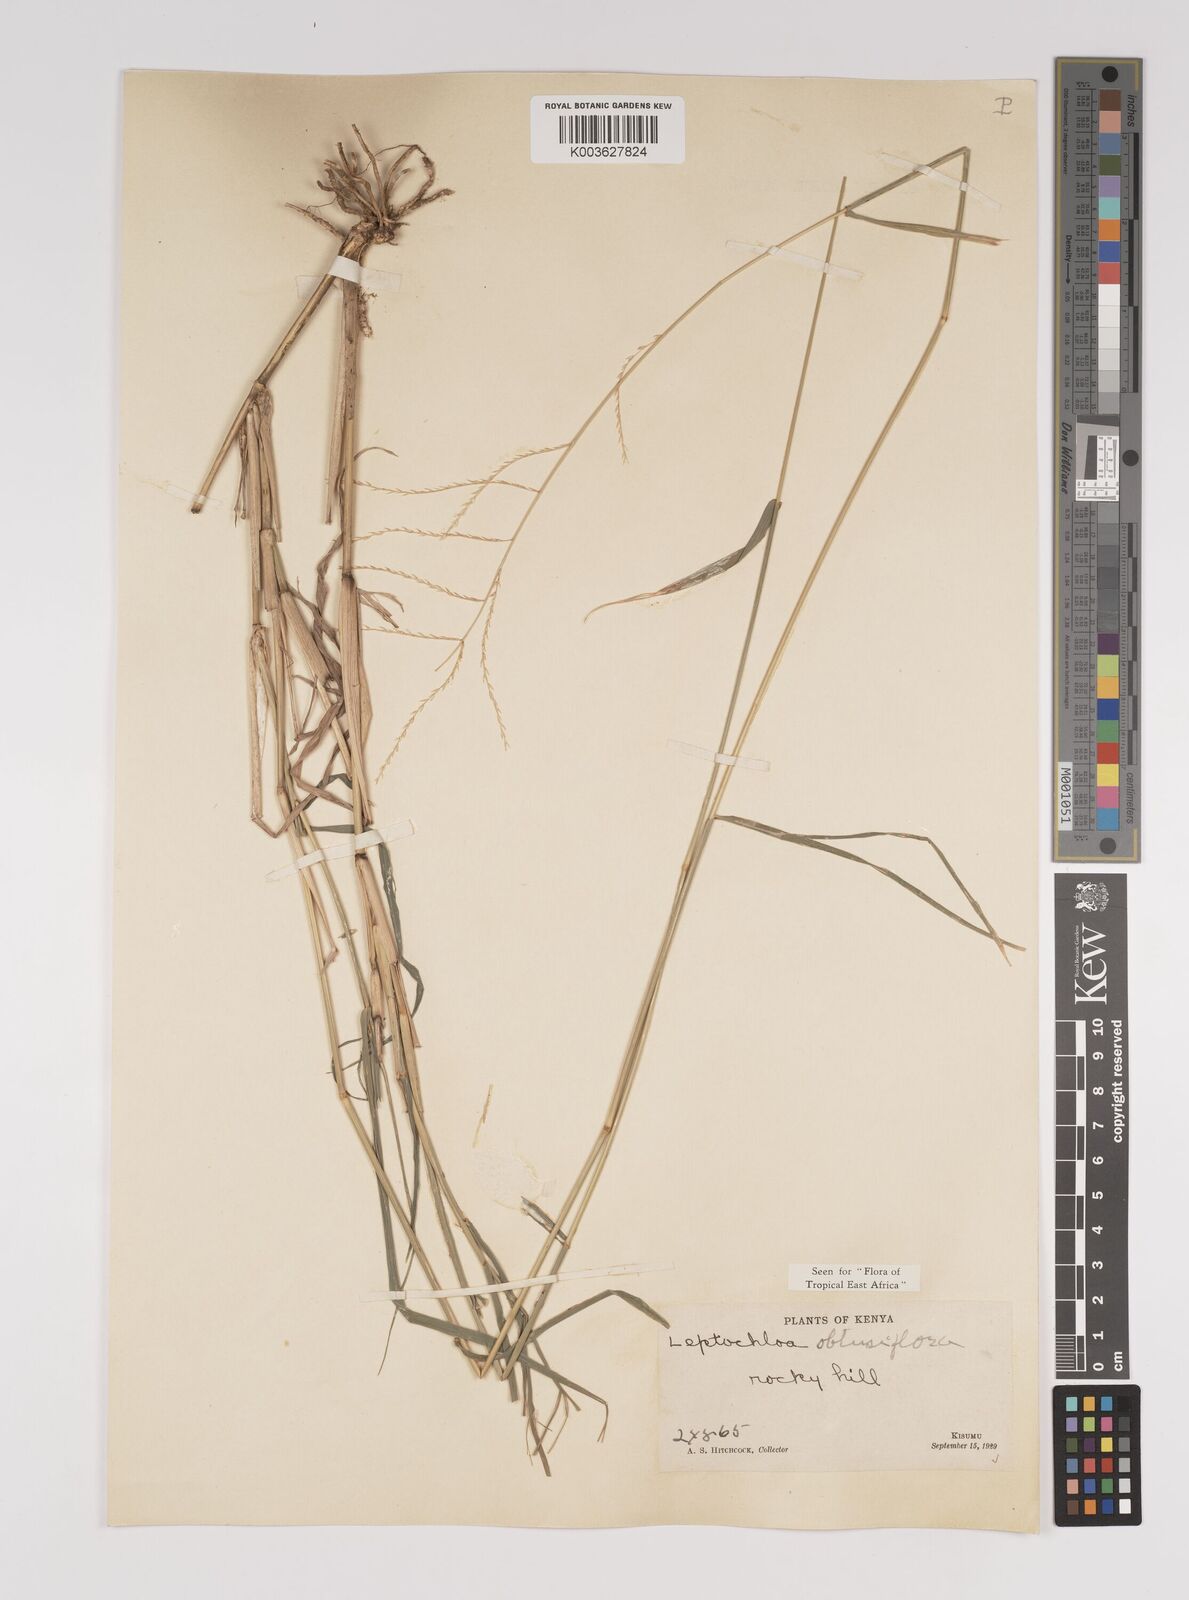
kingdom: Plantae
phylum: Tracheophyta
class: Liliopsida
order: Poales
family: Poaceae
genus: Disakisperma
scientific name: Disakisperma obtusiflorum
